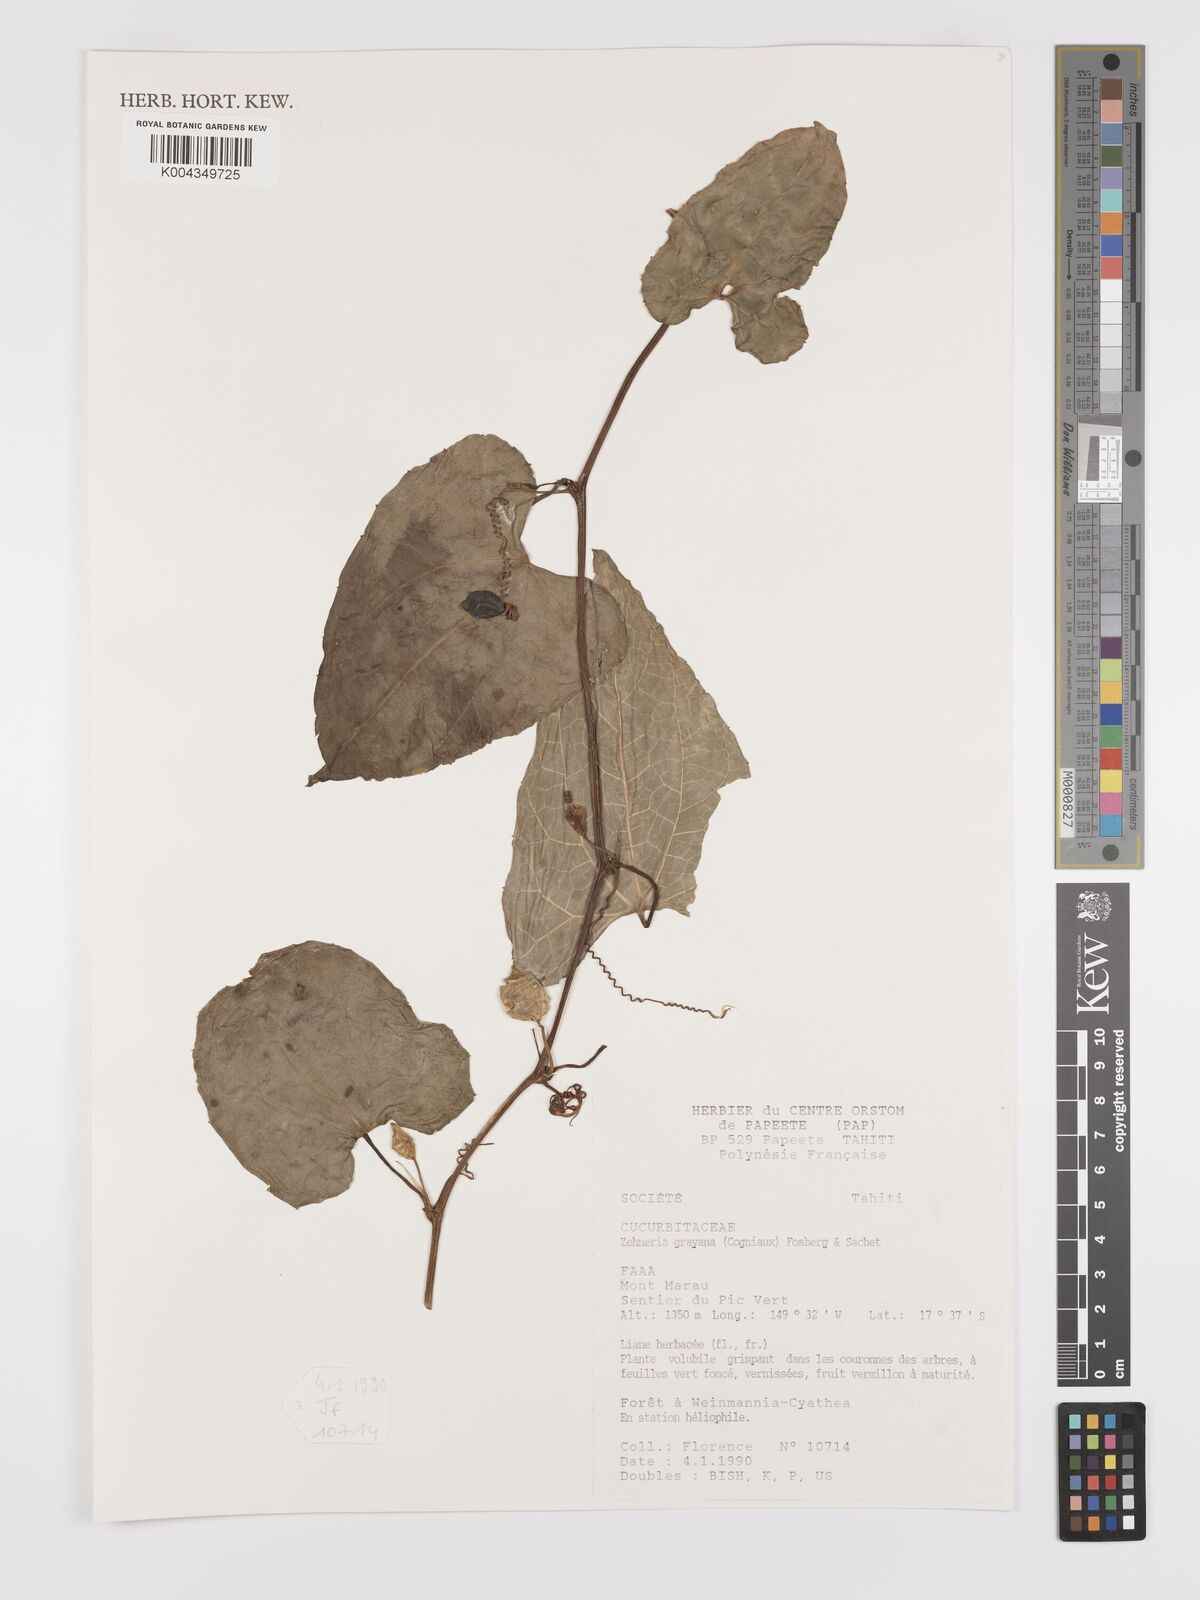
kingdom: Plantae
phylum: Tracheophyta
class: Magnoliopsida
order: Cucurbitales
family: Cucurbitaceae
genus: Zehneria
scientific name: Zehneria mucronata
